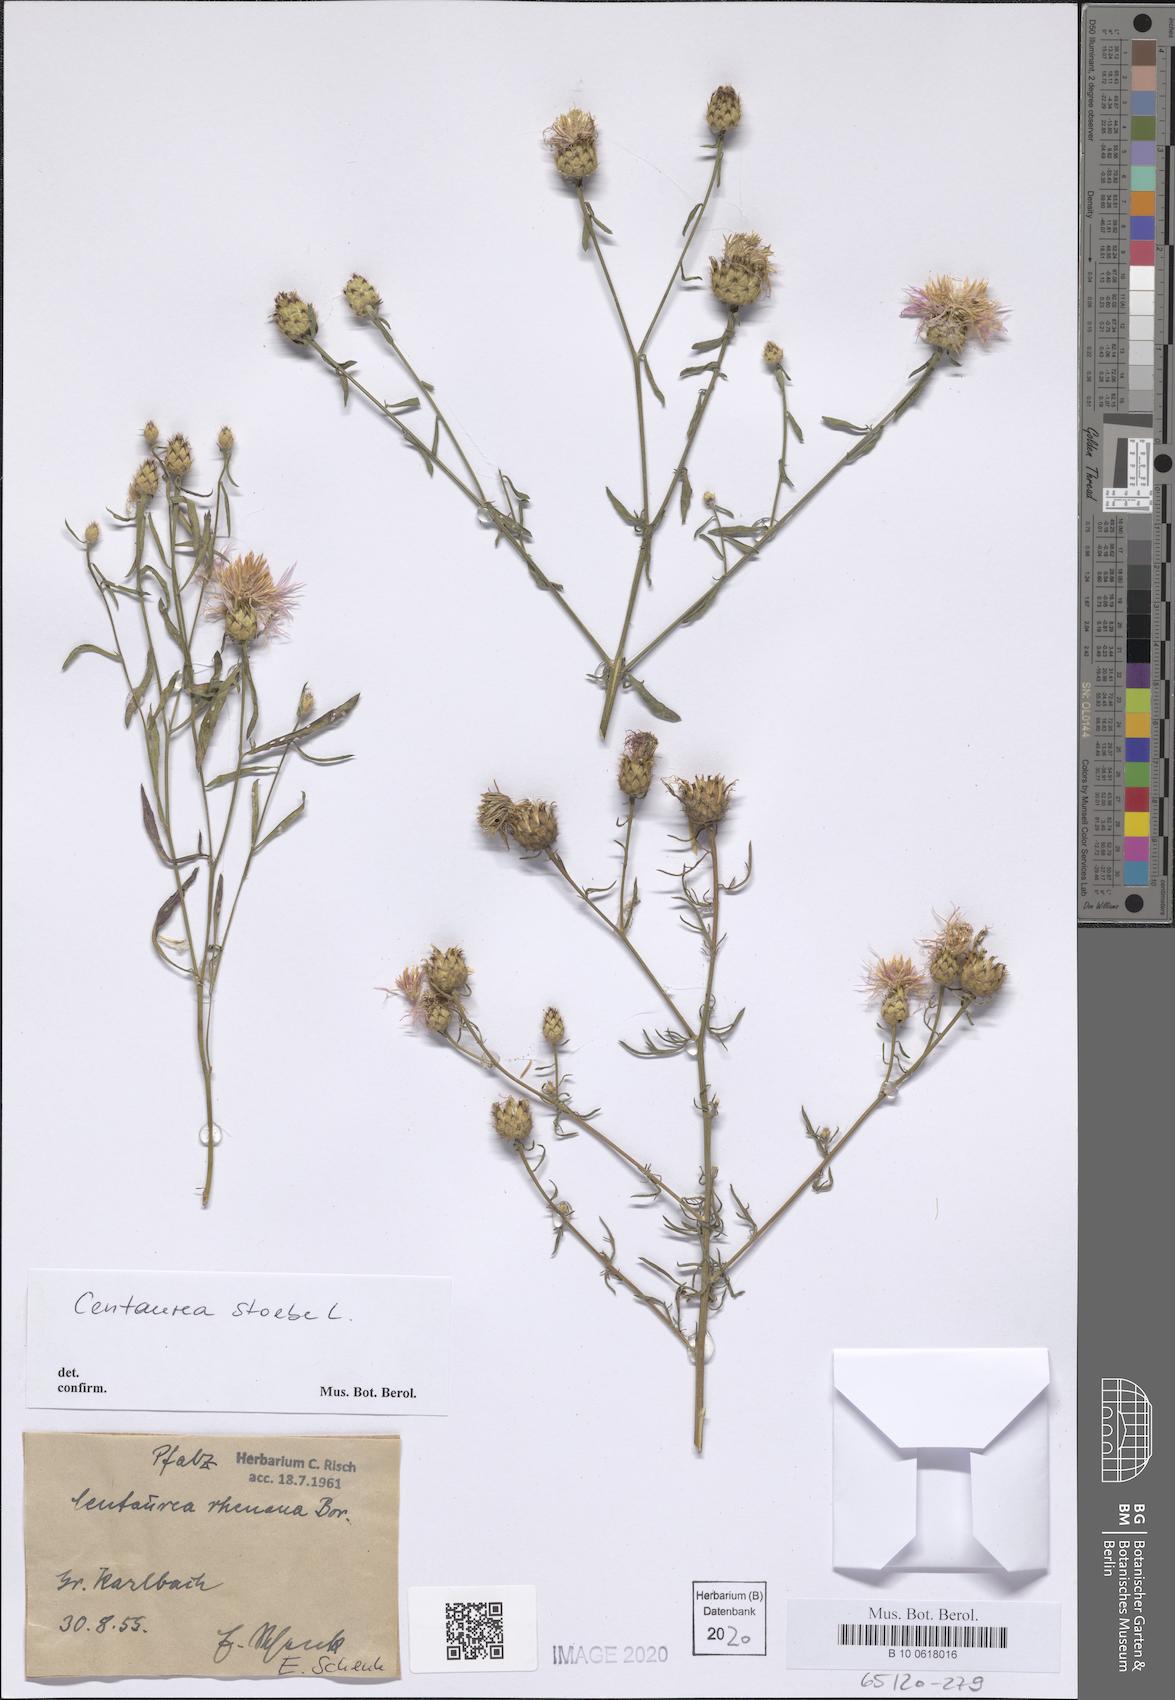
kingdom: Plantae
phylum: Tracheophyta
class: Magnoliopsida
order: Asterales
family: Asteraceae
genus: Centaurea
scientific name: Centaurea stoebe
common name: Spotted knapweed
